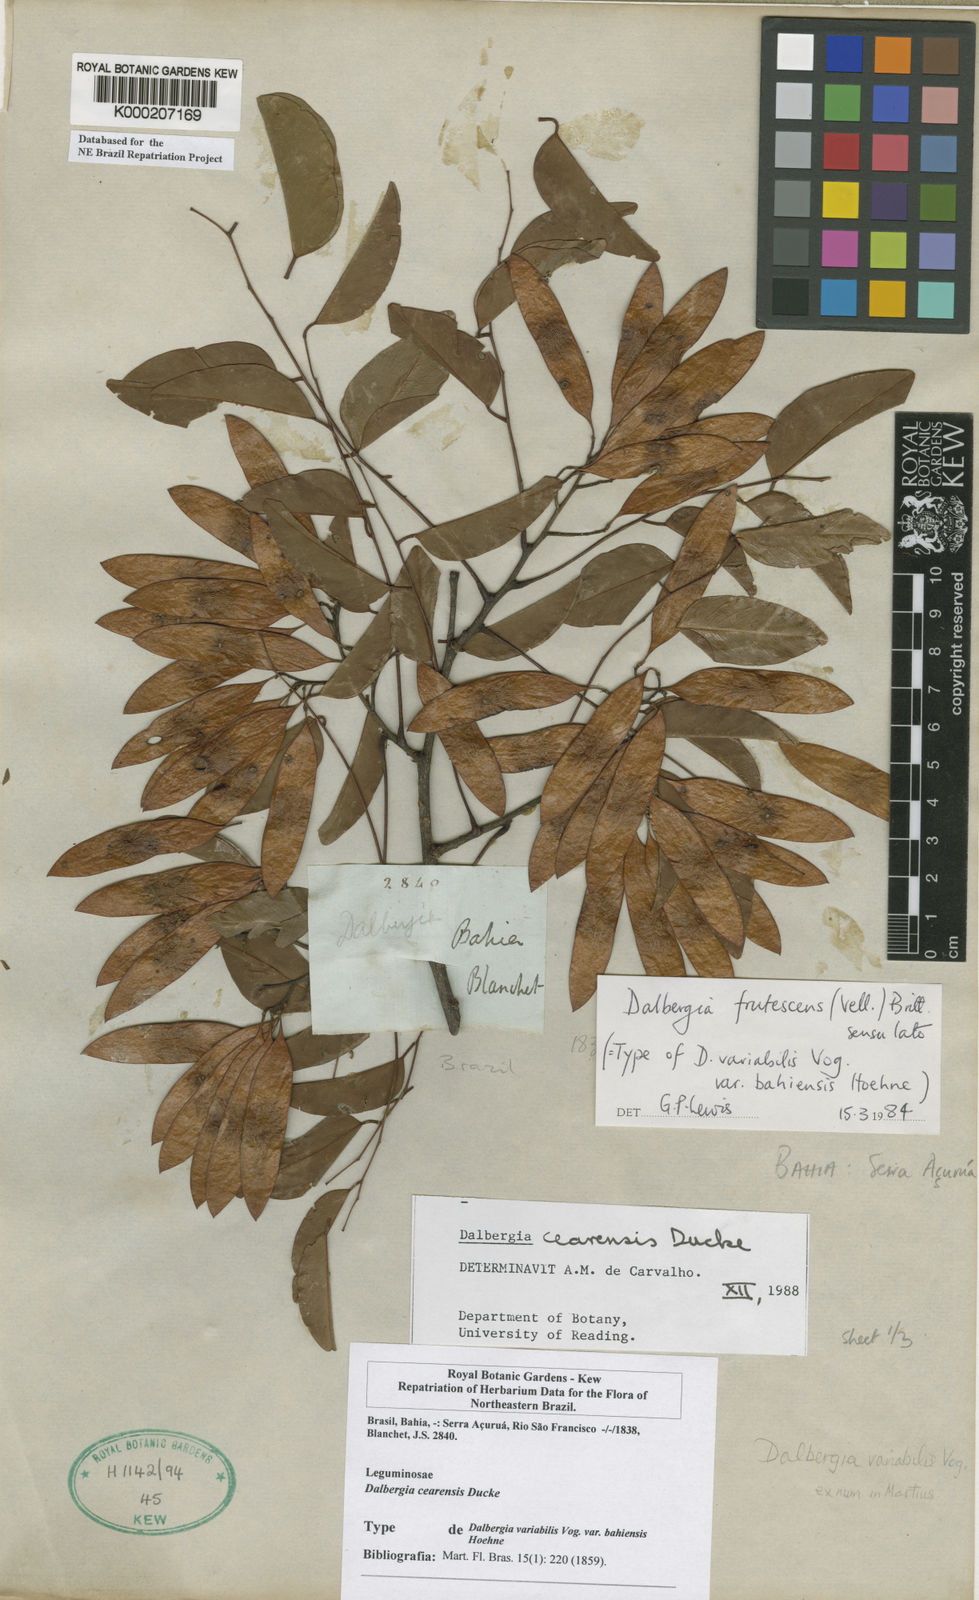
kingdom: Plantae
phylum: Tracheophyta
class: Magnoliopsida
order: Fabales
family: Fabaceae
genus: Dalbergia
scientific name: Dalbergia cearensis
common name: Brazilian-king-wood
